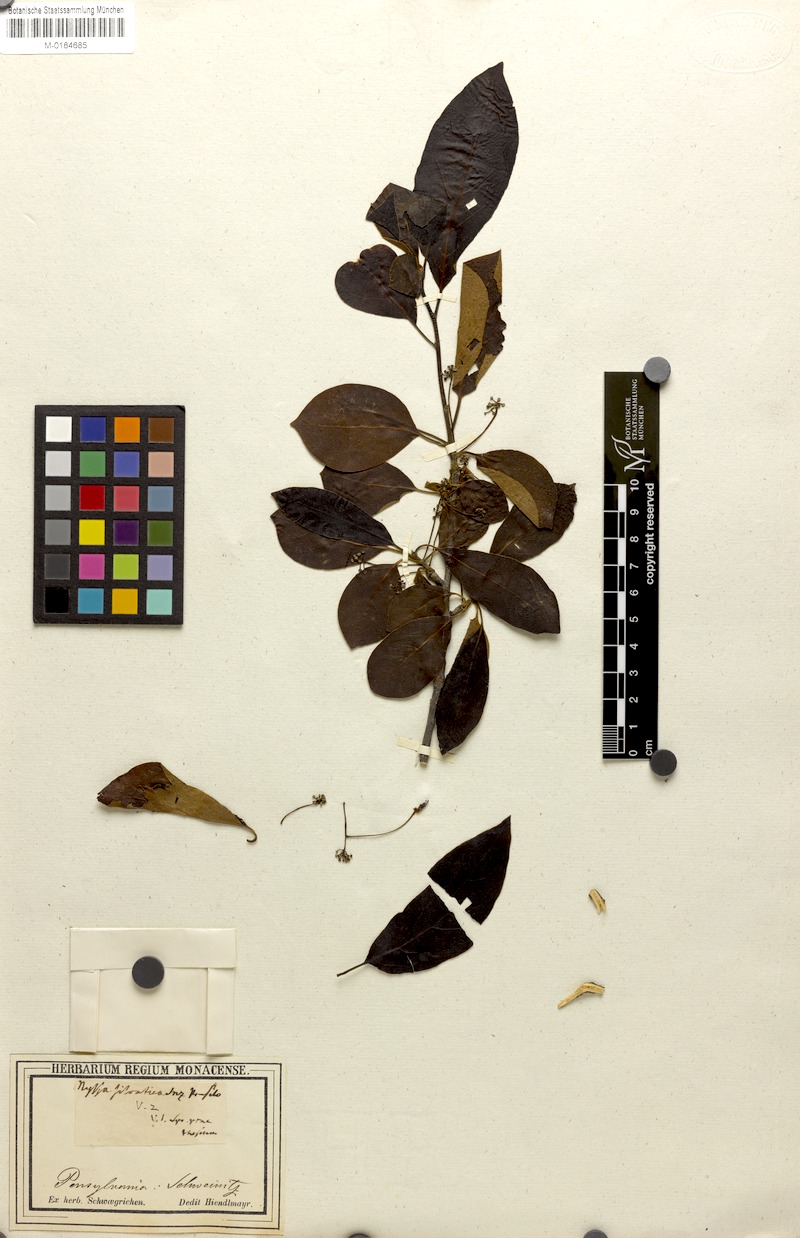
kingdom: Plantae
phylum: Tracheophyta
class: Magnoliopsida
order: Cornales
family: Nyssaceae
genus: Nyssa
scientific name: Nyssa sylvatica
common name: Black tupelo
